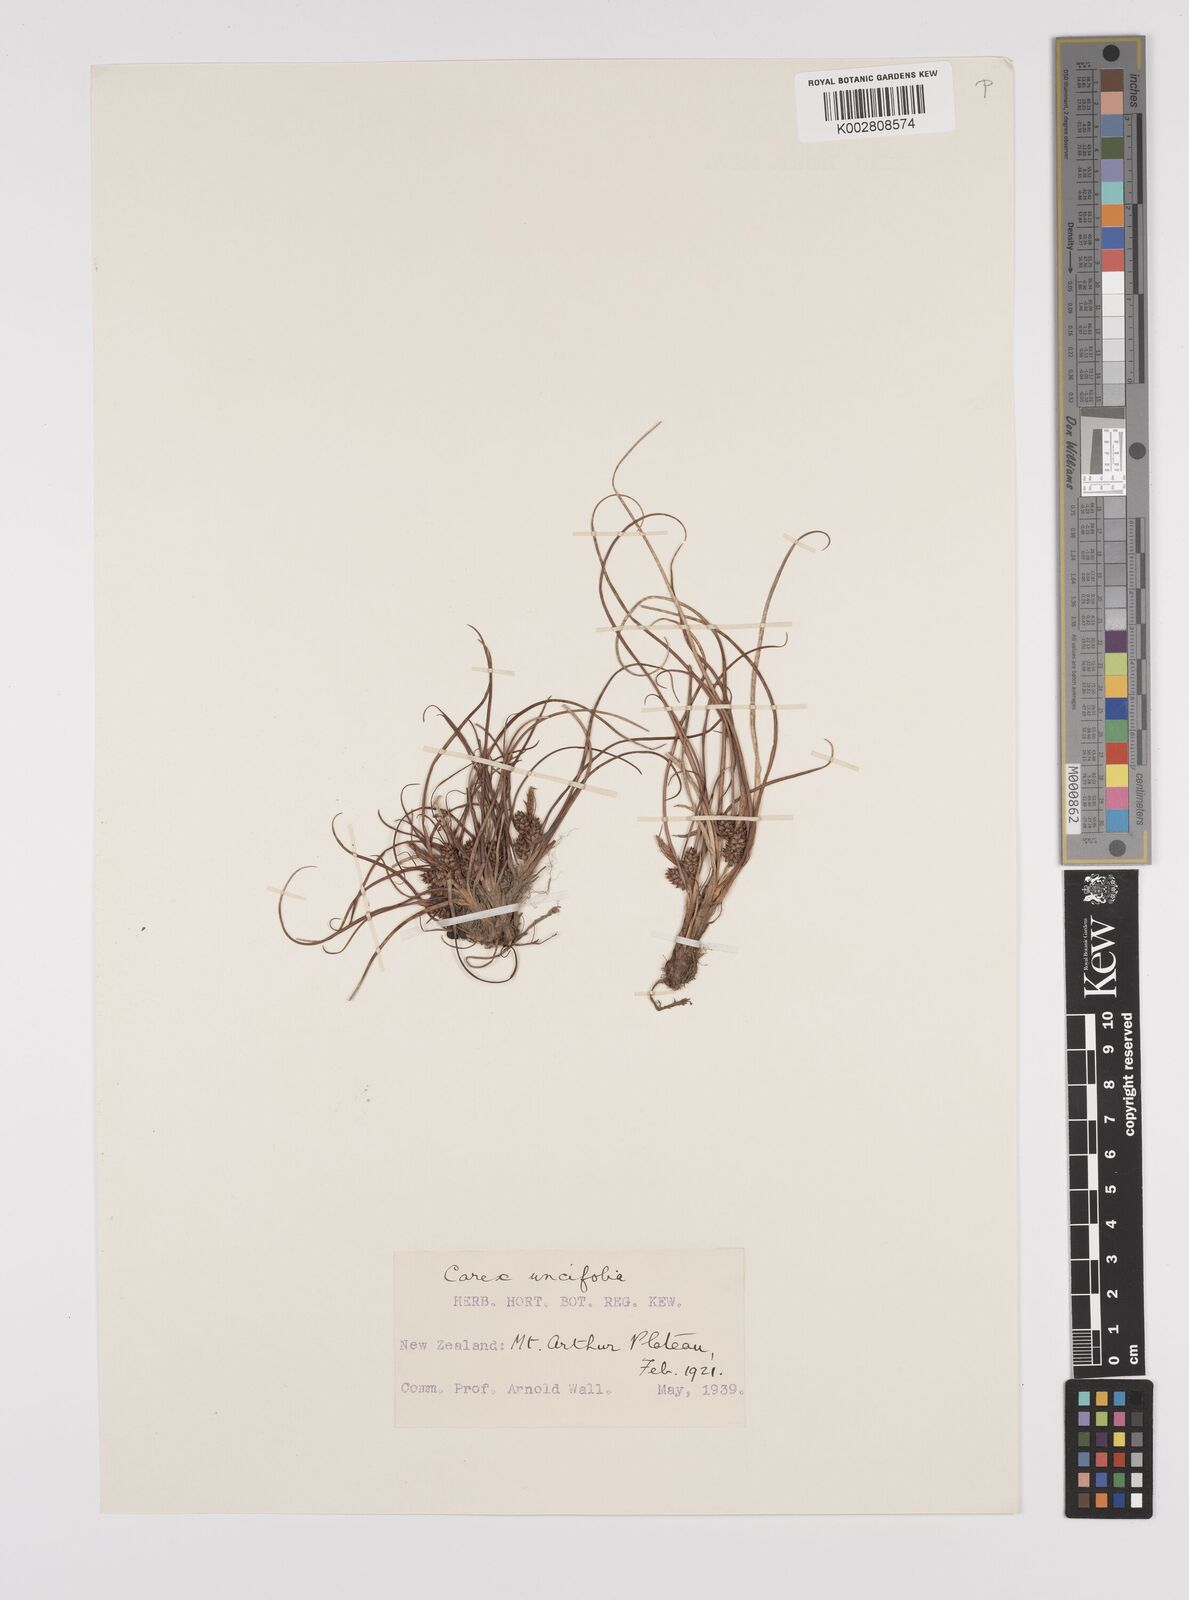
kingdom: Plantae
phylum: Tracheophyta
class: Liliopsida
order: Poales
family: Cyperaceae
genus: Carex
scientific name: Carex uncifolia
